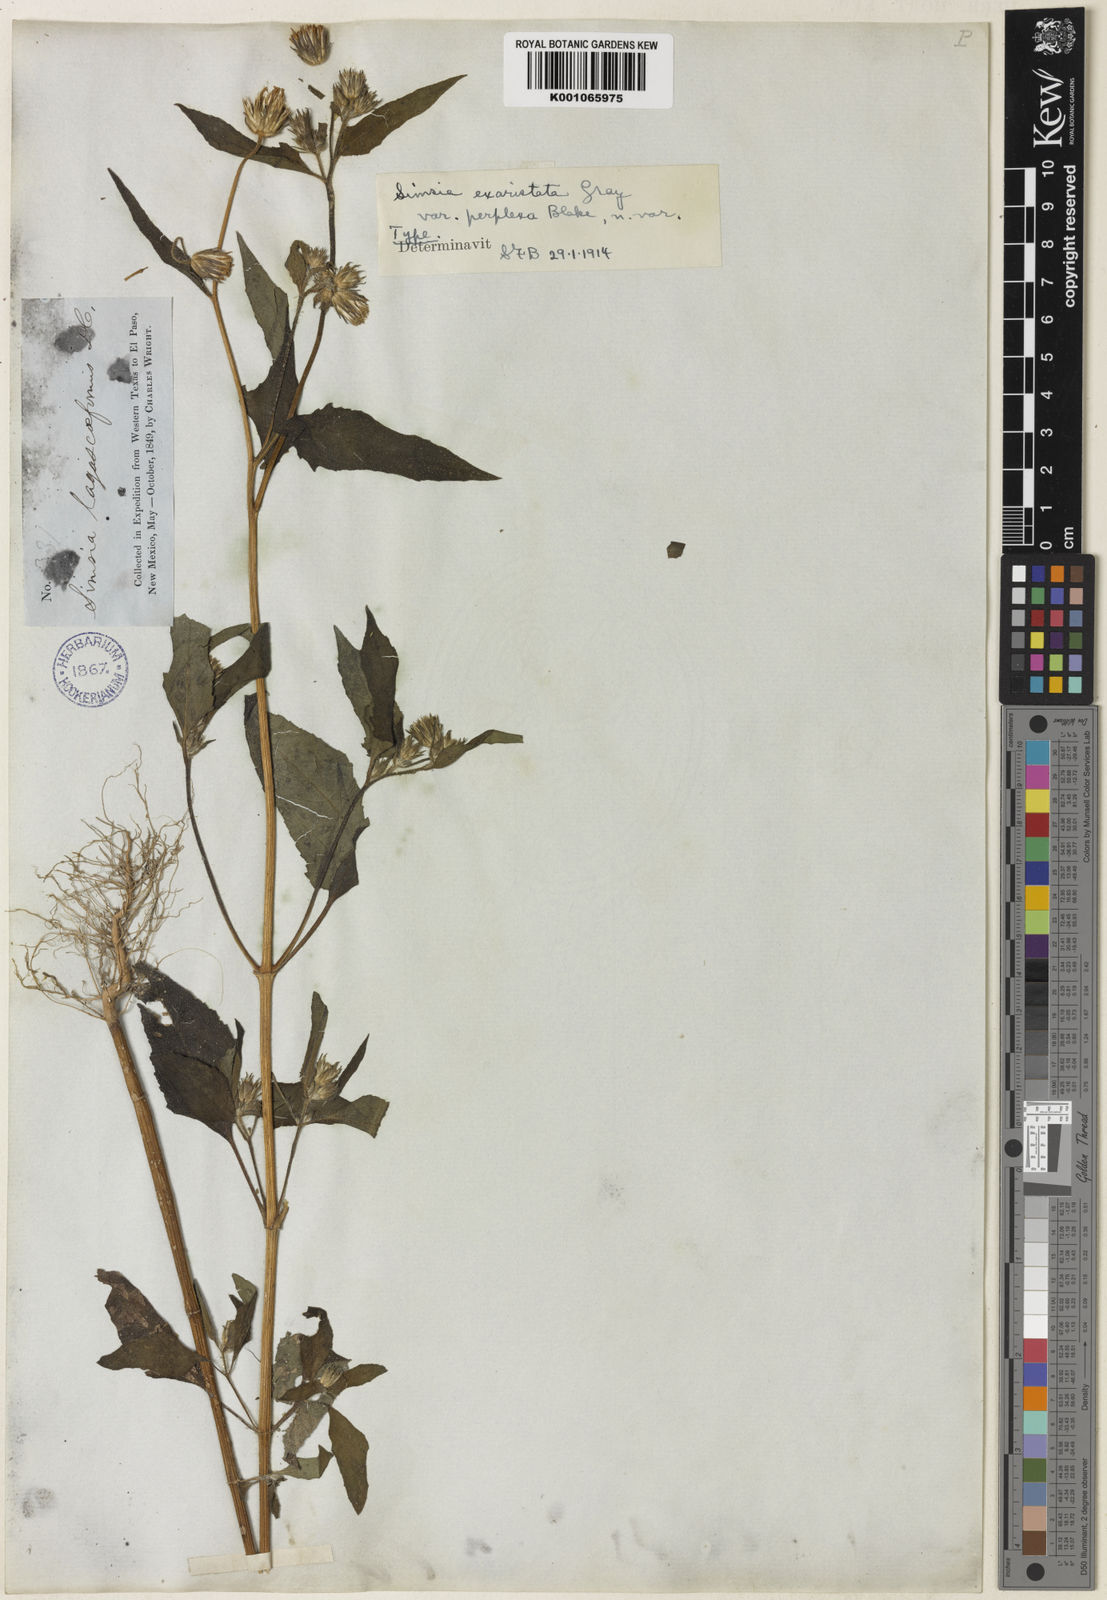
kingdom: Plantae
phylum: Tracheophyta
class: Magnoliopsida
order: Asterales
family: Asteraceae
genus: Simsia
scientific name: Simsia lagasceiformis
